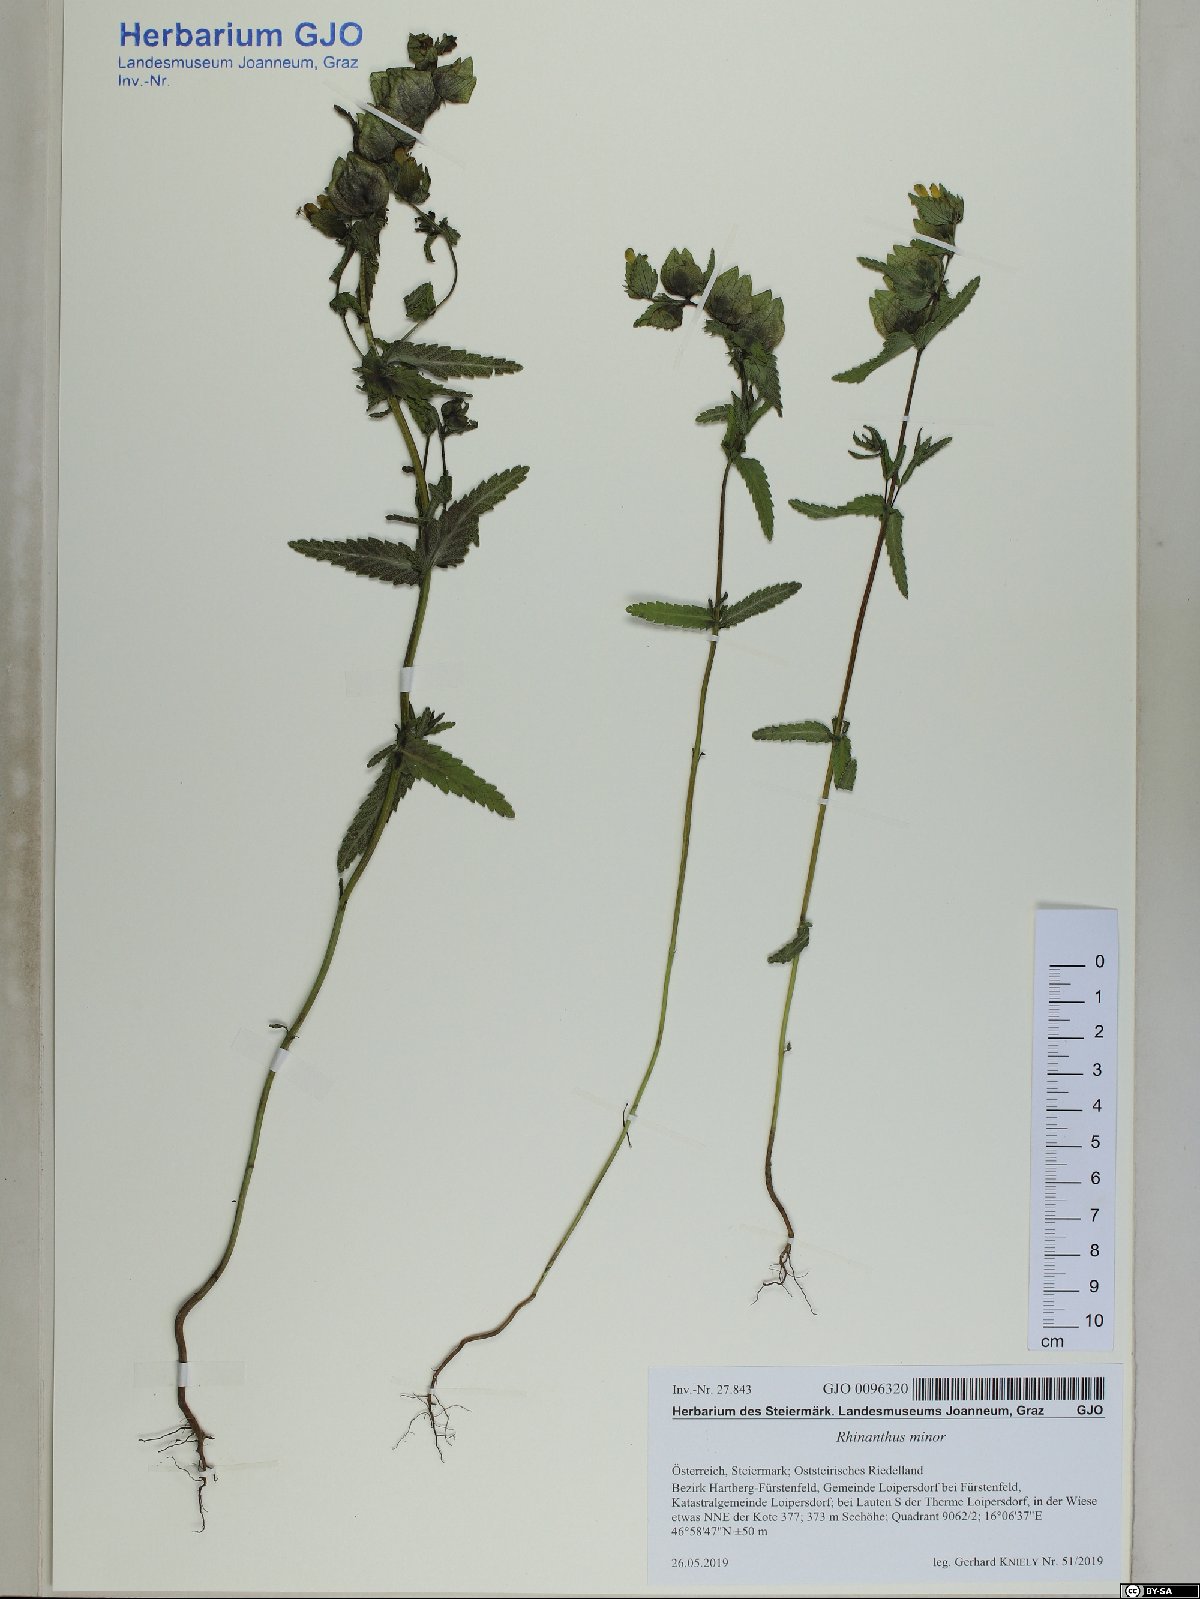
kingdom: Plantae
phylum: Tracheophyta
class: Magnoliopsida
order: Lamiales
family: Orobanchaceae
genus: Rhinanthus
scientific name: Rhinanthus minor
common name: Yellow-rattle
